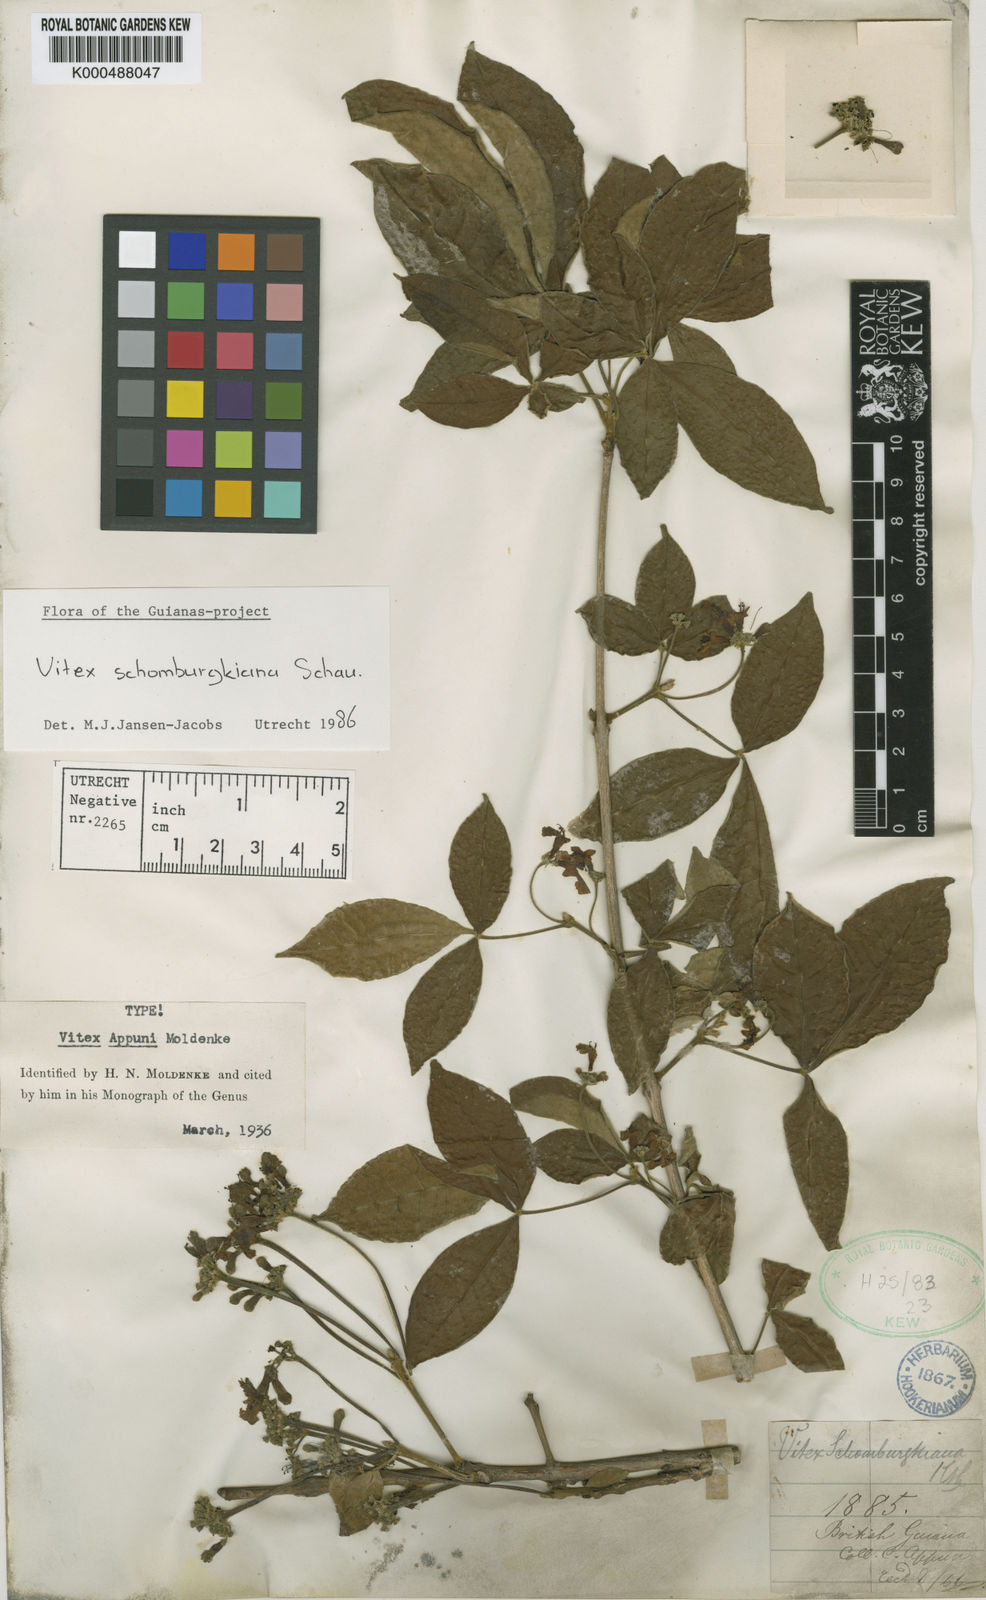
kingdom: Plantae
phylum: Tracheophyta
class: Magnoliopsida
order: Lamiales
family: Lamiaceae
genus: Vitex
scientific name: Vitex schomburgkiana
